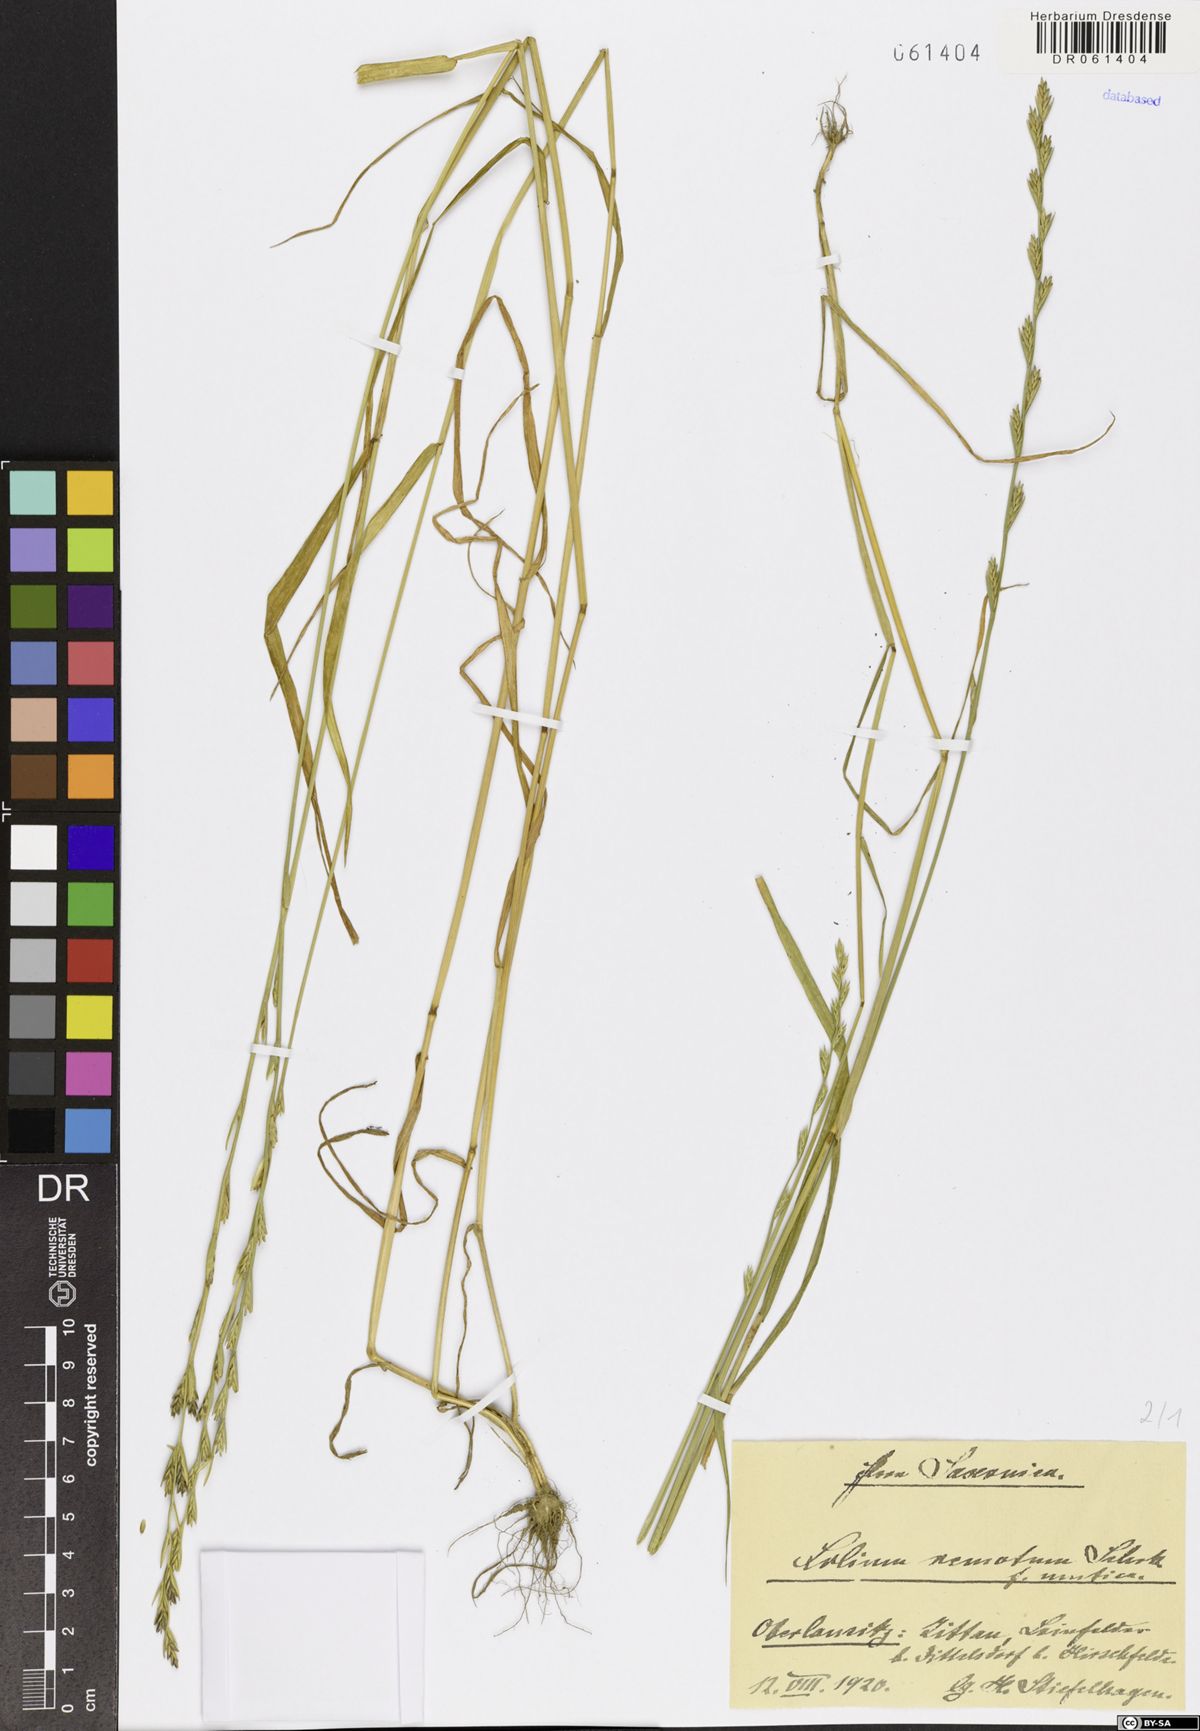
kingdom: Plantae
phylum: Tracheophyta
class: Liliopsida
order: Poales
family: Poaceae
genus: Lolium
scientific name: Lolium remotum
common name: Flaxfield rye-grass
